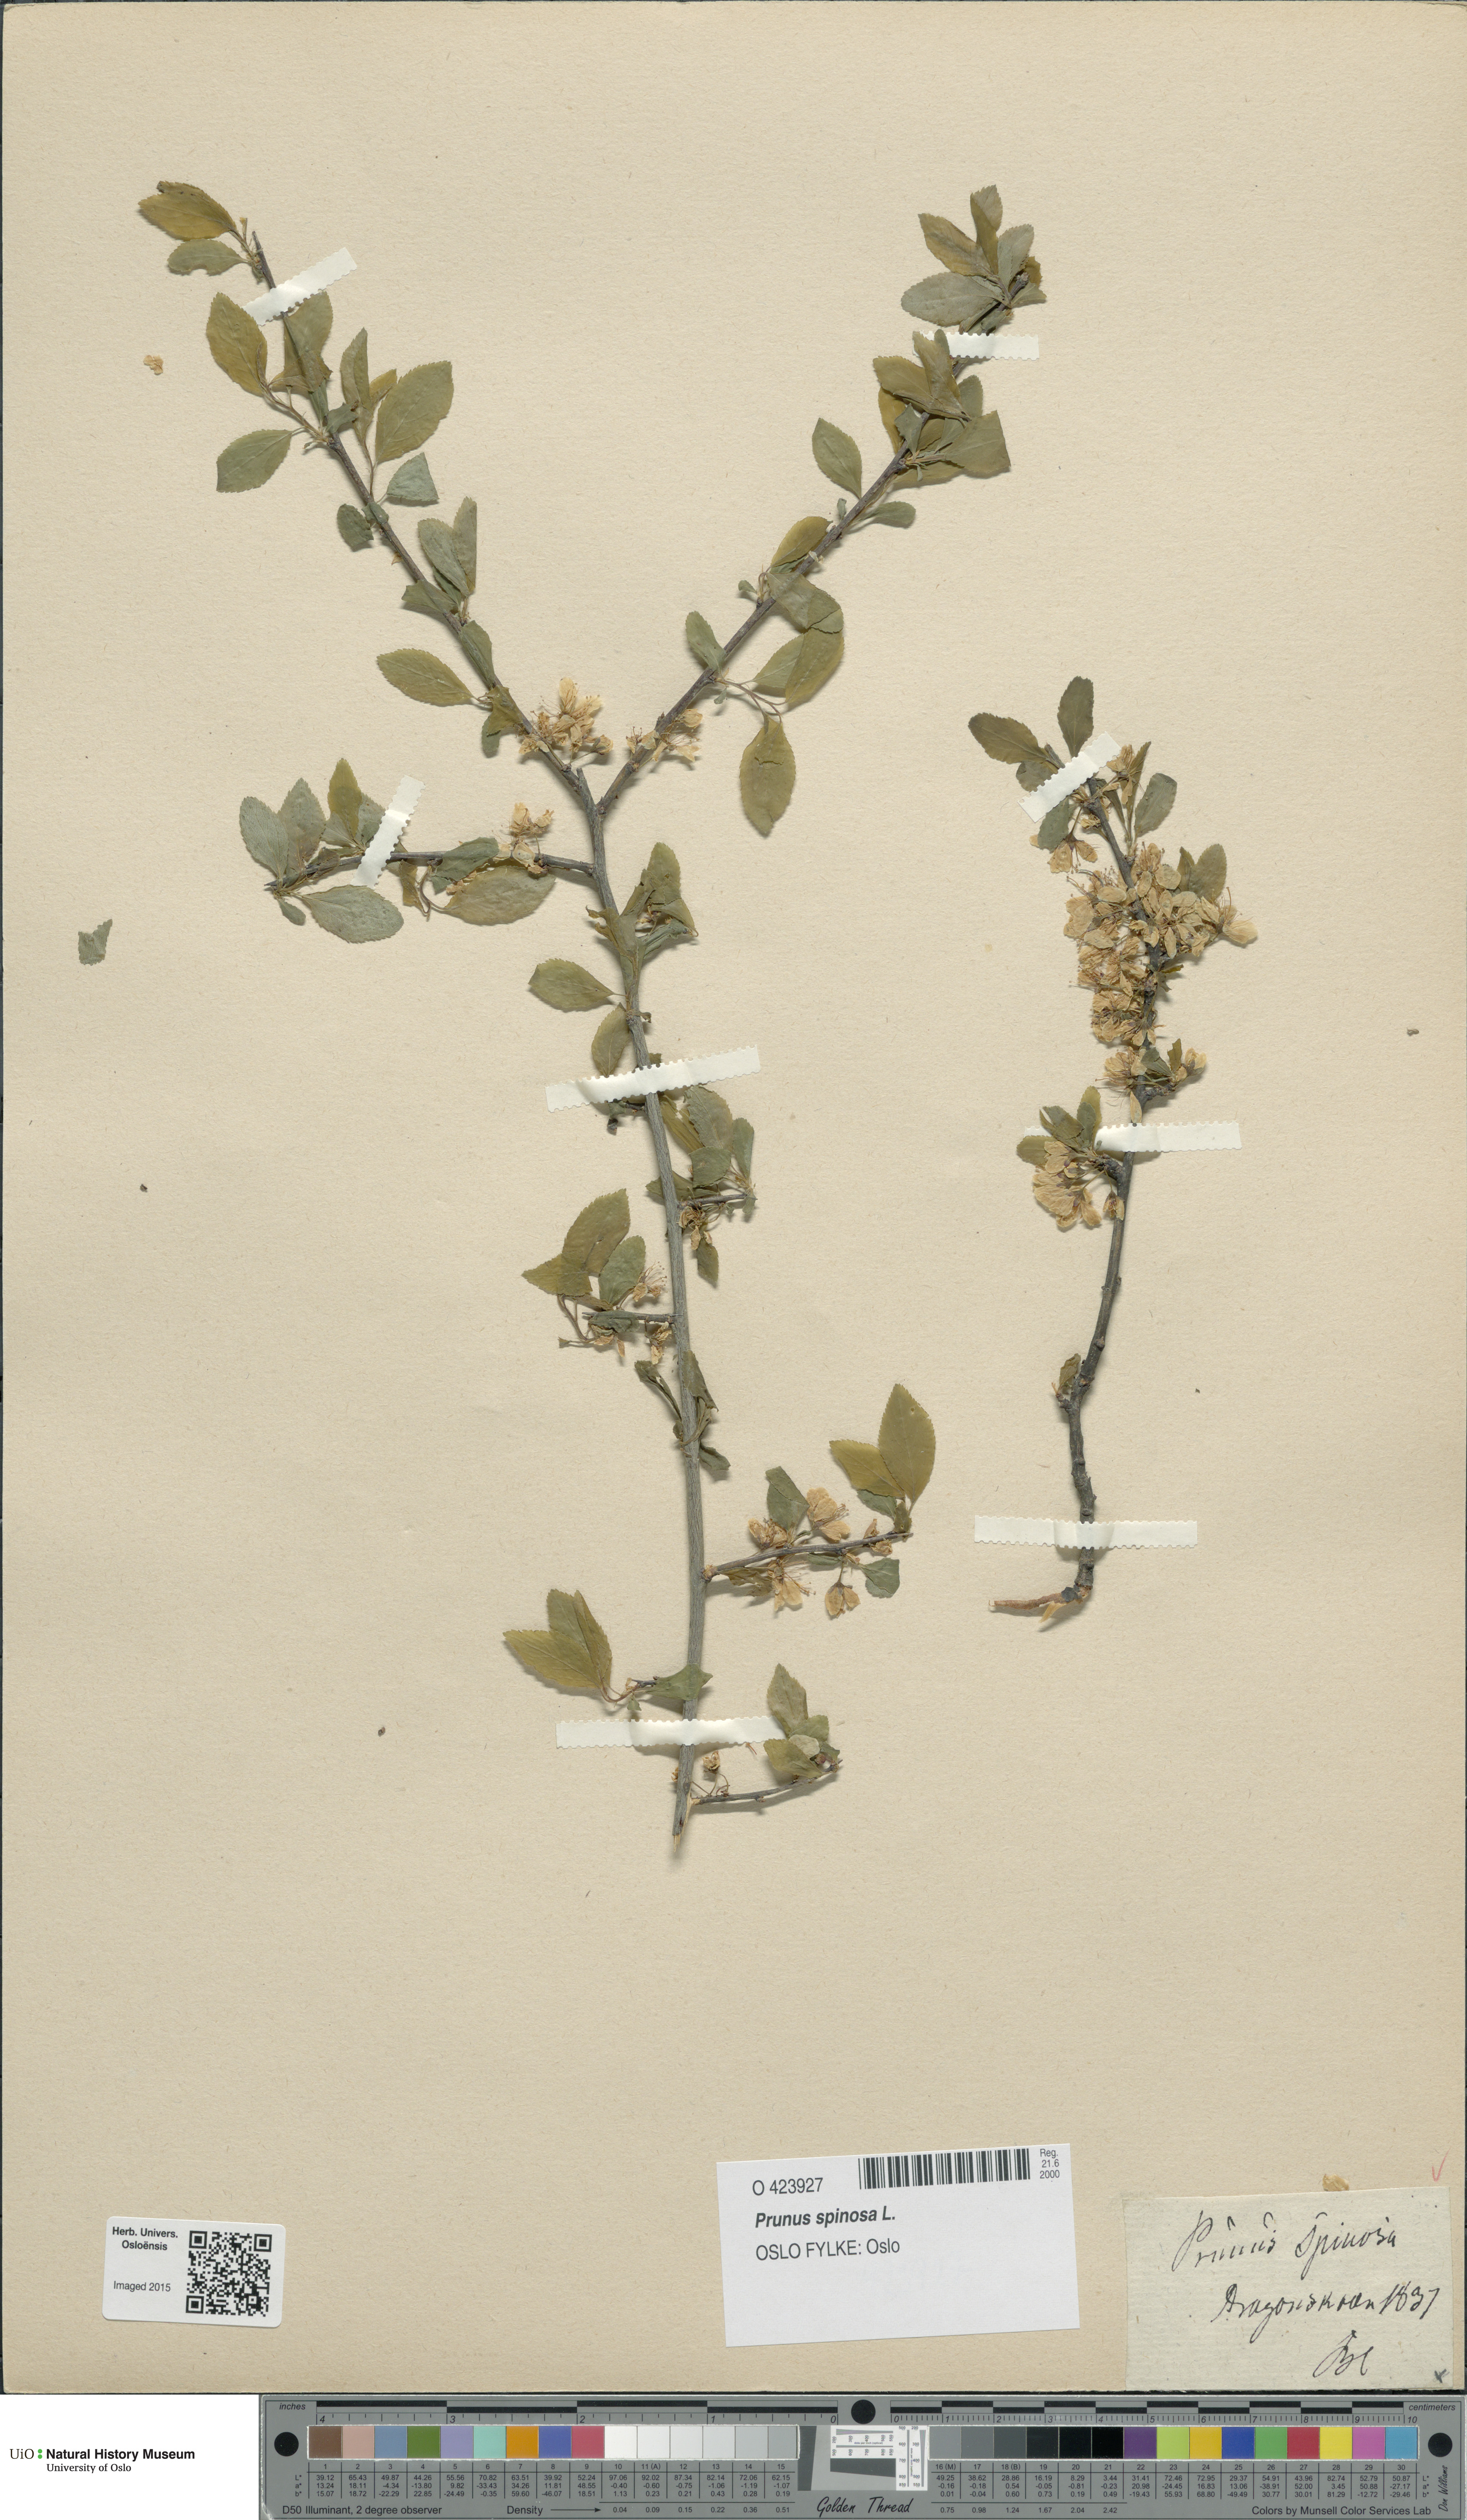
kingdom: Plantae
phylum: Tracheophyta
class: Magnoliopsida
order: Rosales
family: Rosaceae
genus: Prunus
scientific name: Prunus spinosa
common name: Blackthorn
